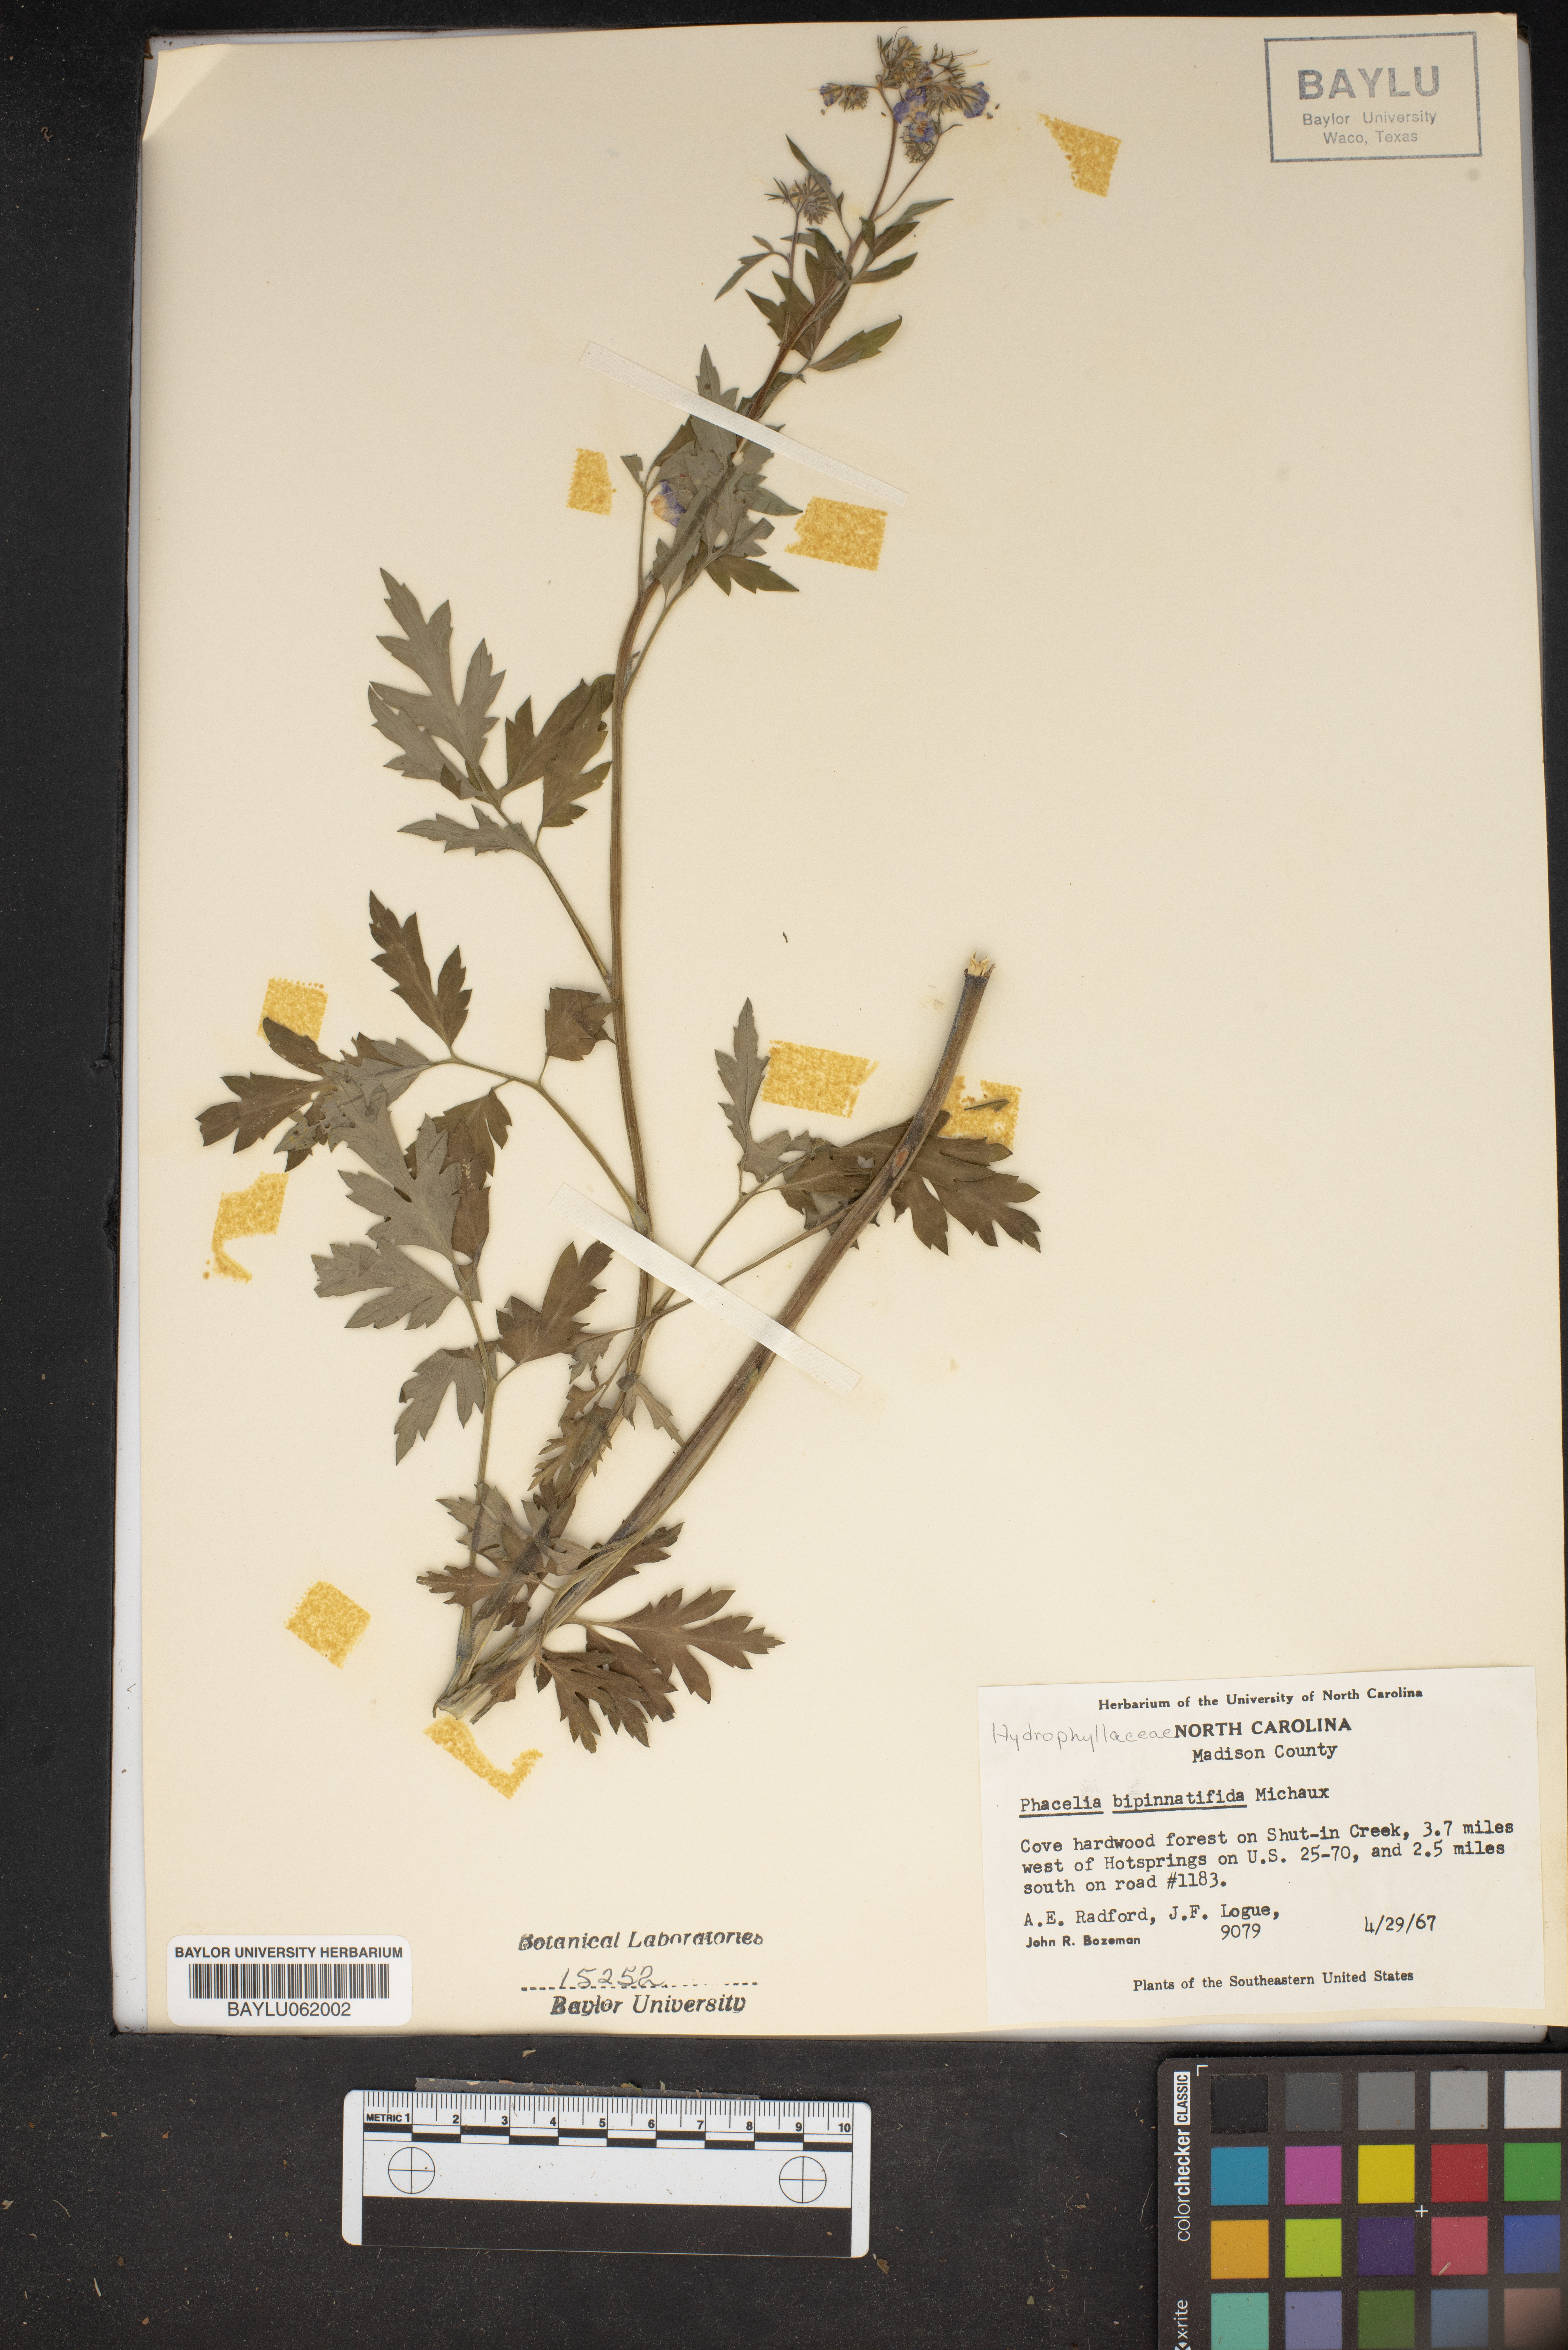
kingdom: Plantae
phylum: Tracheophyta
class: Magnoliopsida
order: Boraginales
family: Hydrophyllaceae
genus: Phacelia
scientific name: Phacelia bipinnatifida
